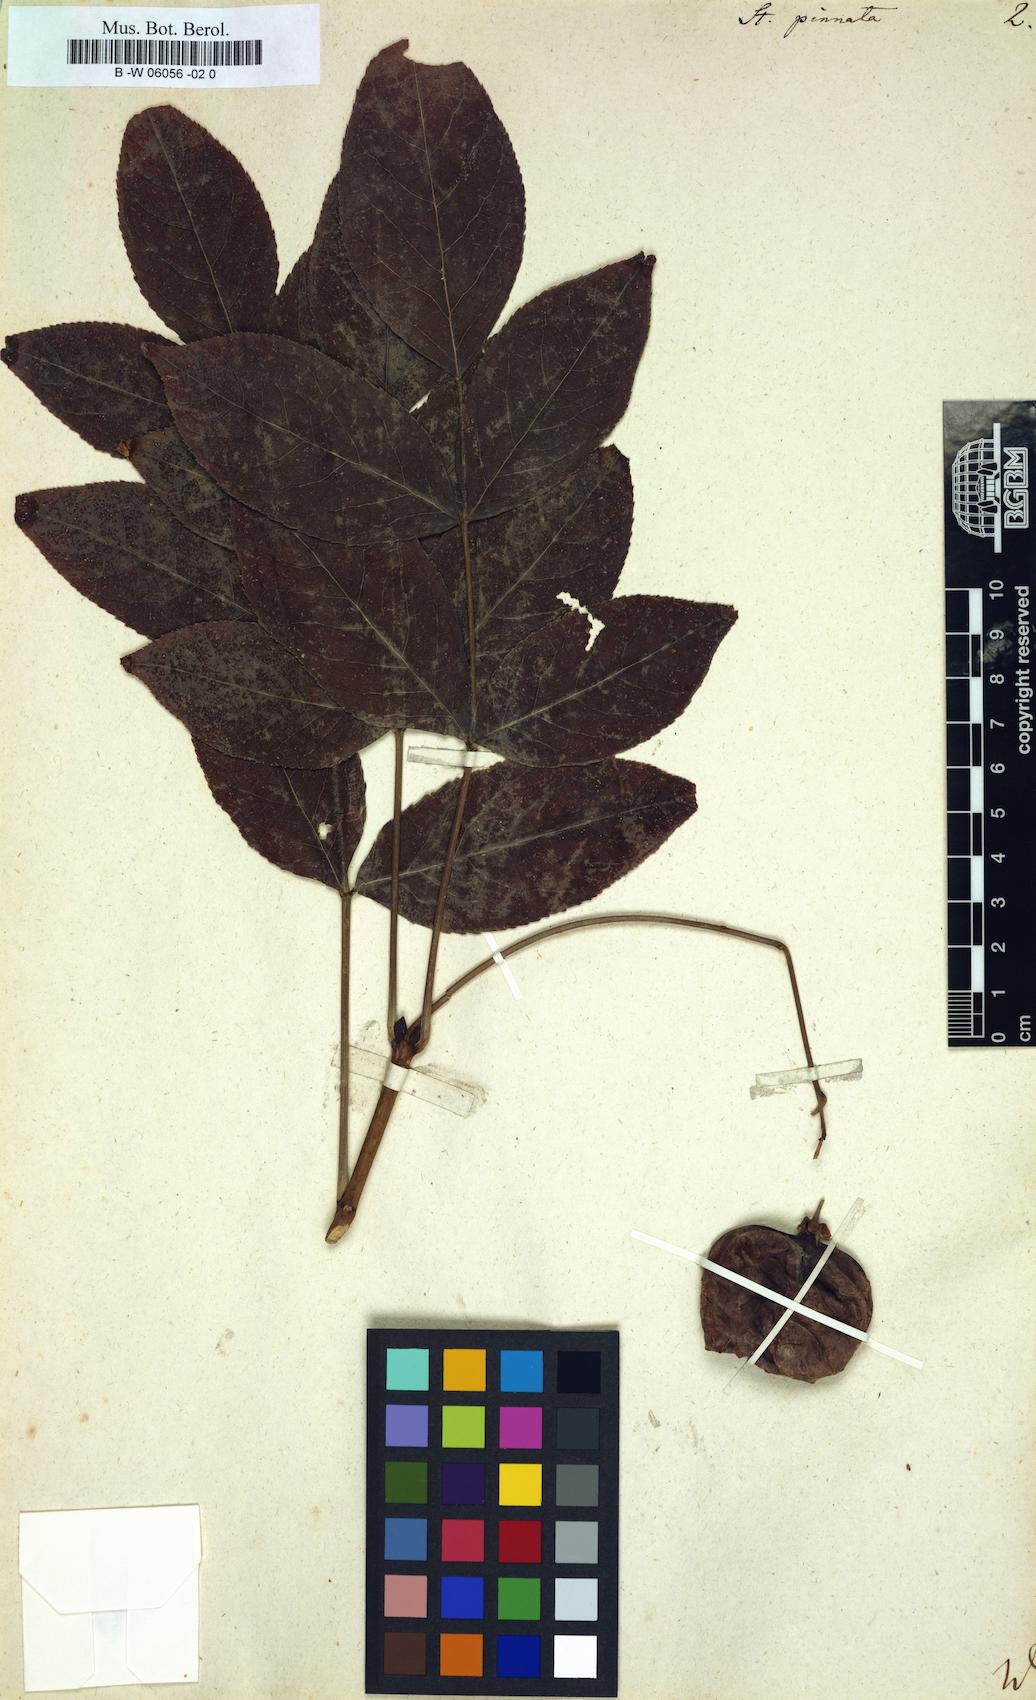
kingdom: Plantae
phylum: Tracheophyta
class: Magnoliopsida
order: Crossosomatales
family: Staphyleaceae
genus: Staphylea
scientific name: Staphylea pinnata
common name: Bladdernut
